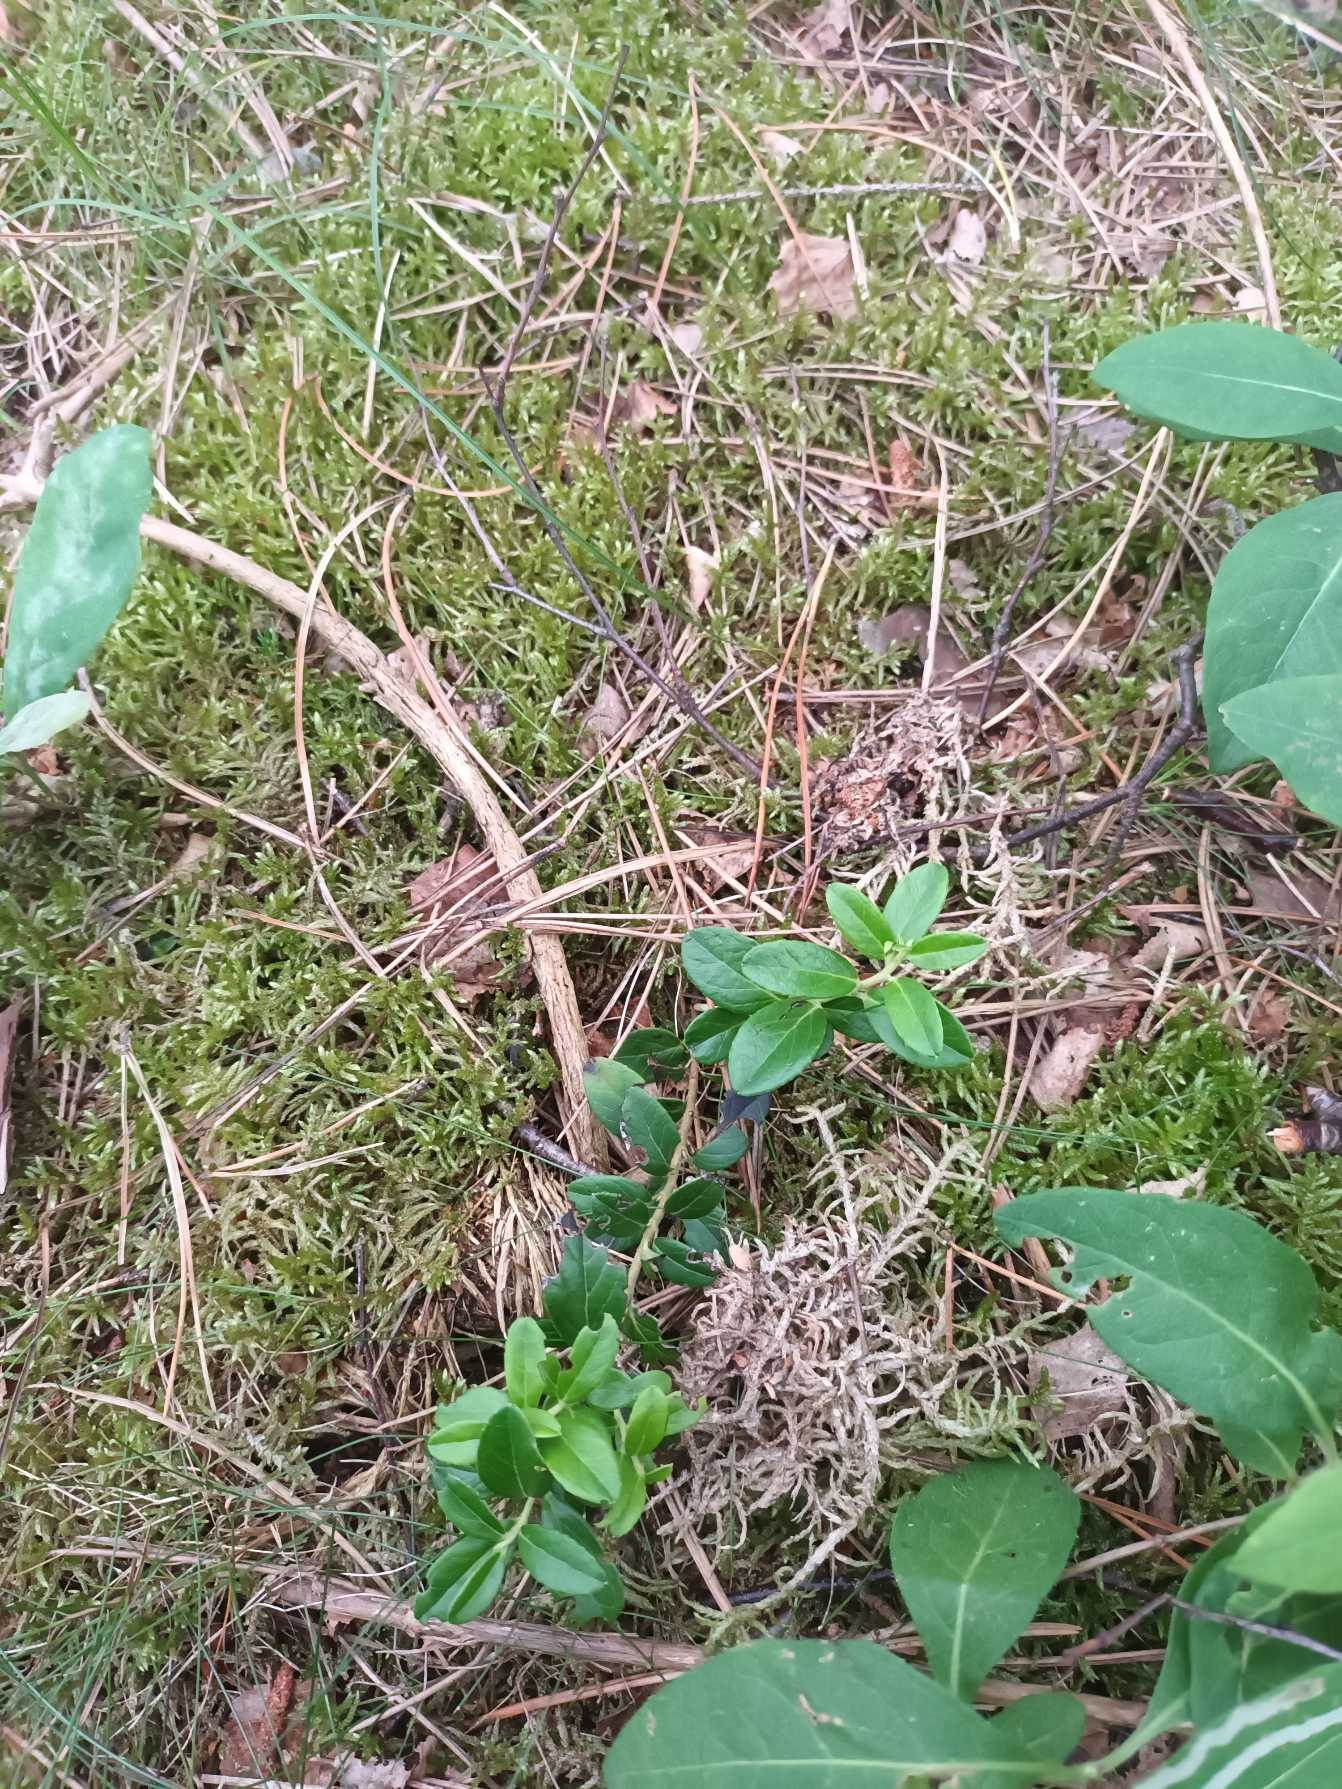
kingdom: Plantae
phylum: Tracheophyta
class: Magnoliopsida
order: Ericales
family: Ericaceae
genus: Vaccinium
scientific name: Vaccinium vitis-idaea
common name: Tyttebær
